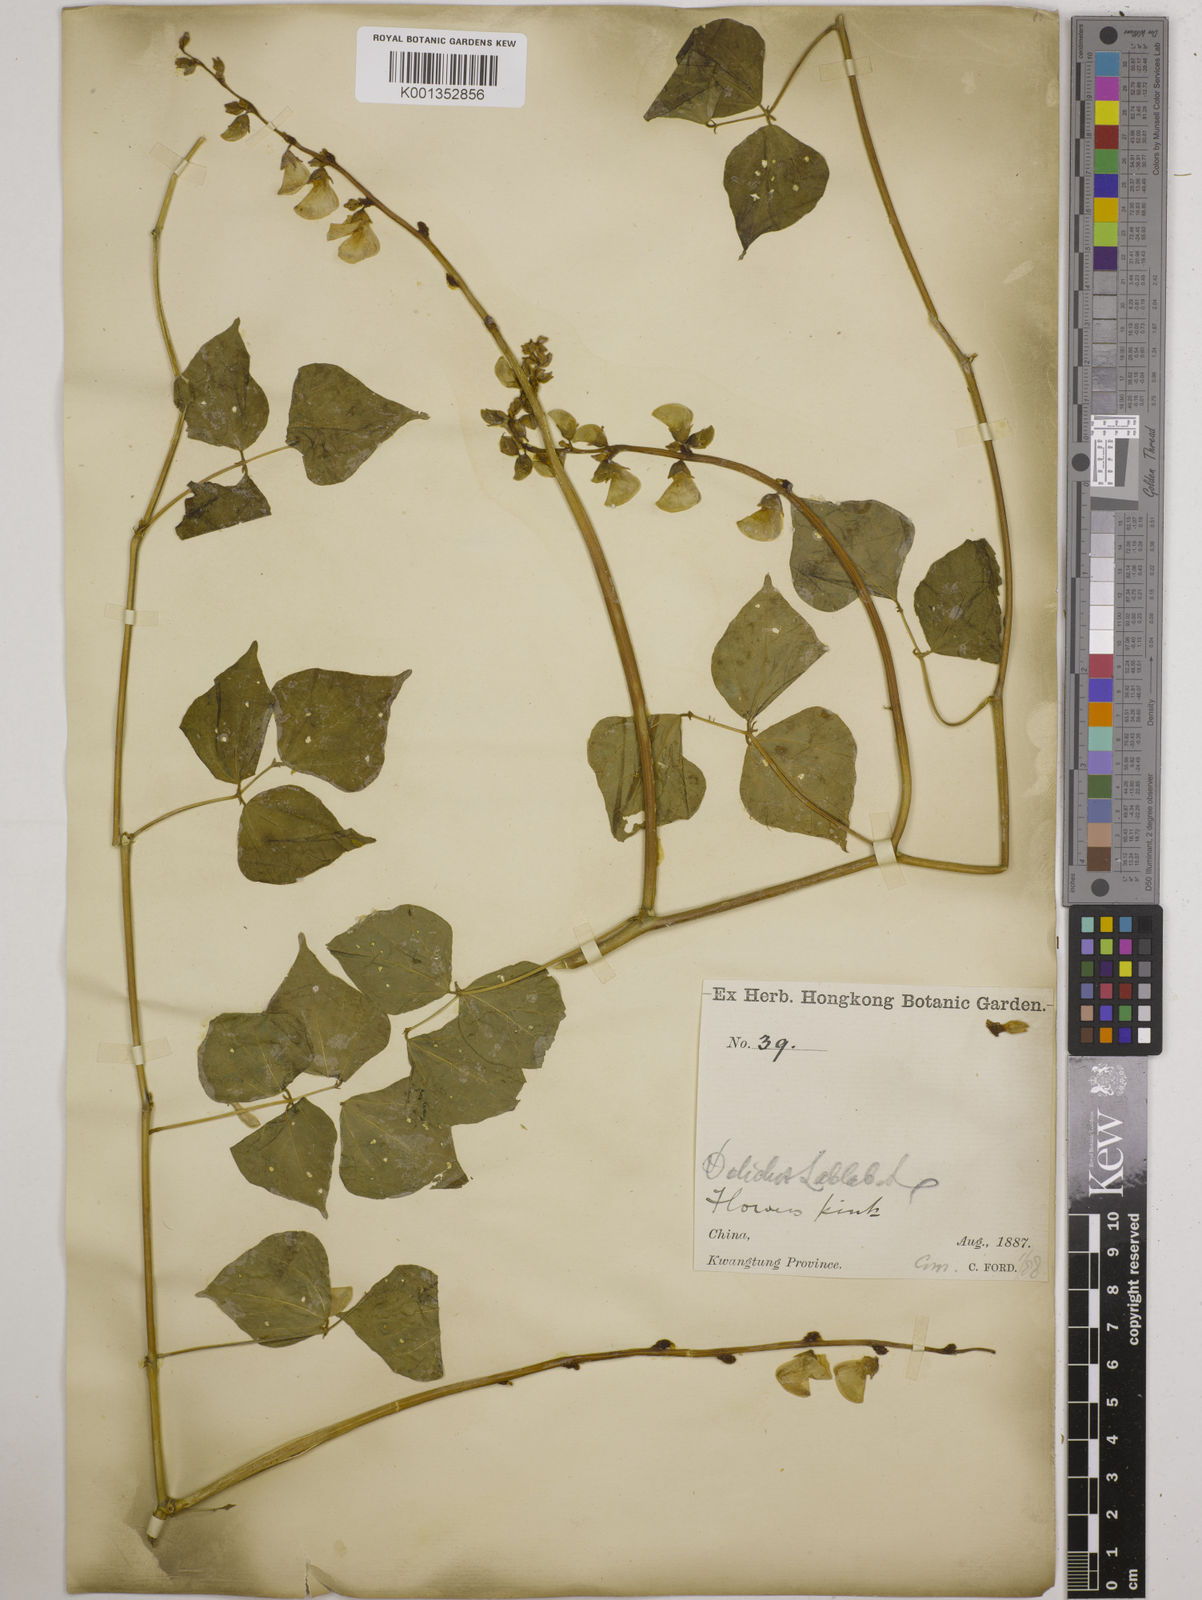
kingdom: Plantae
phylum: Tracheophyta
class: Magnoliopsida
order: Fabales
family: Fabaceae
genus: Lablab
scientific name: Lablab purpureus
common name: Lablab-bean
